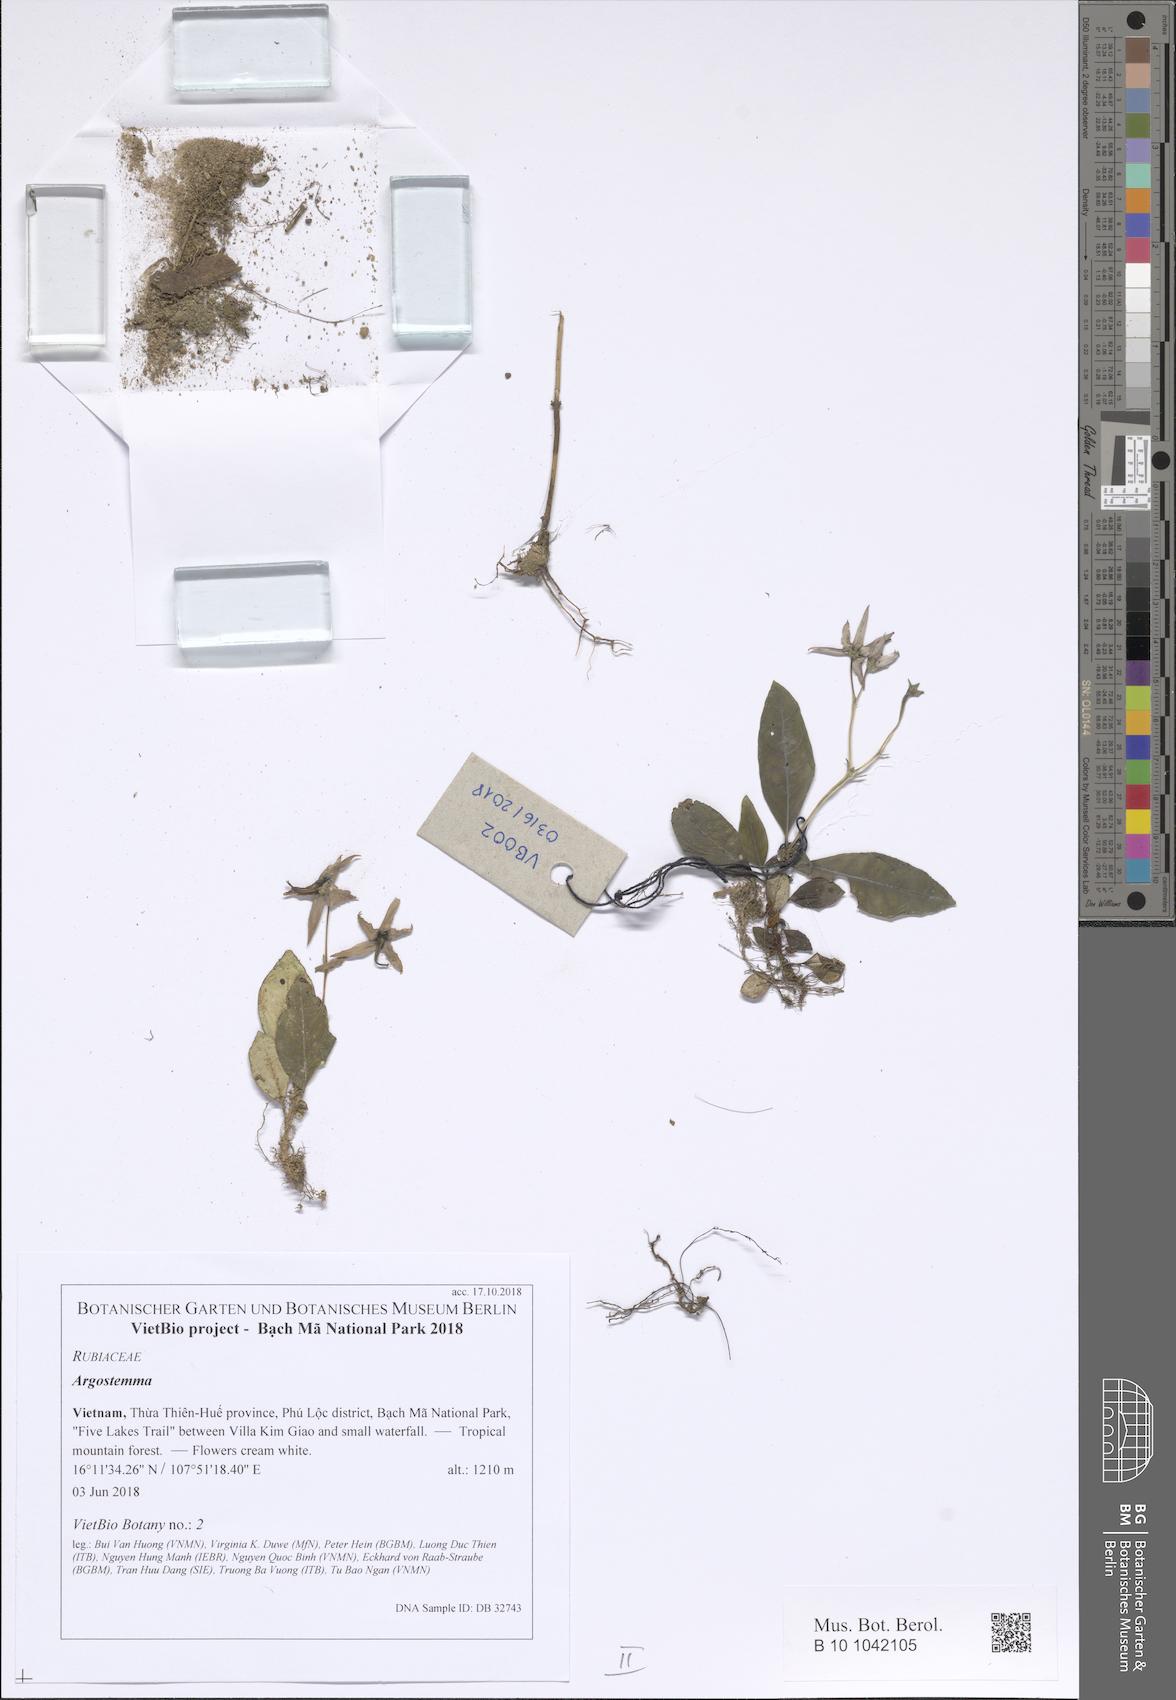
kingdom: Plantae
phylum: Tracheophyta
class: Magnoliopsida
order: Gentianales
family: Rubiaceae
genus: Argostemma
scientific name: Argostemma bariense
